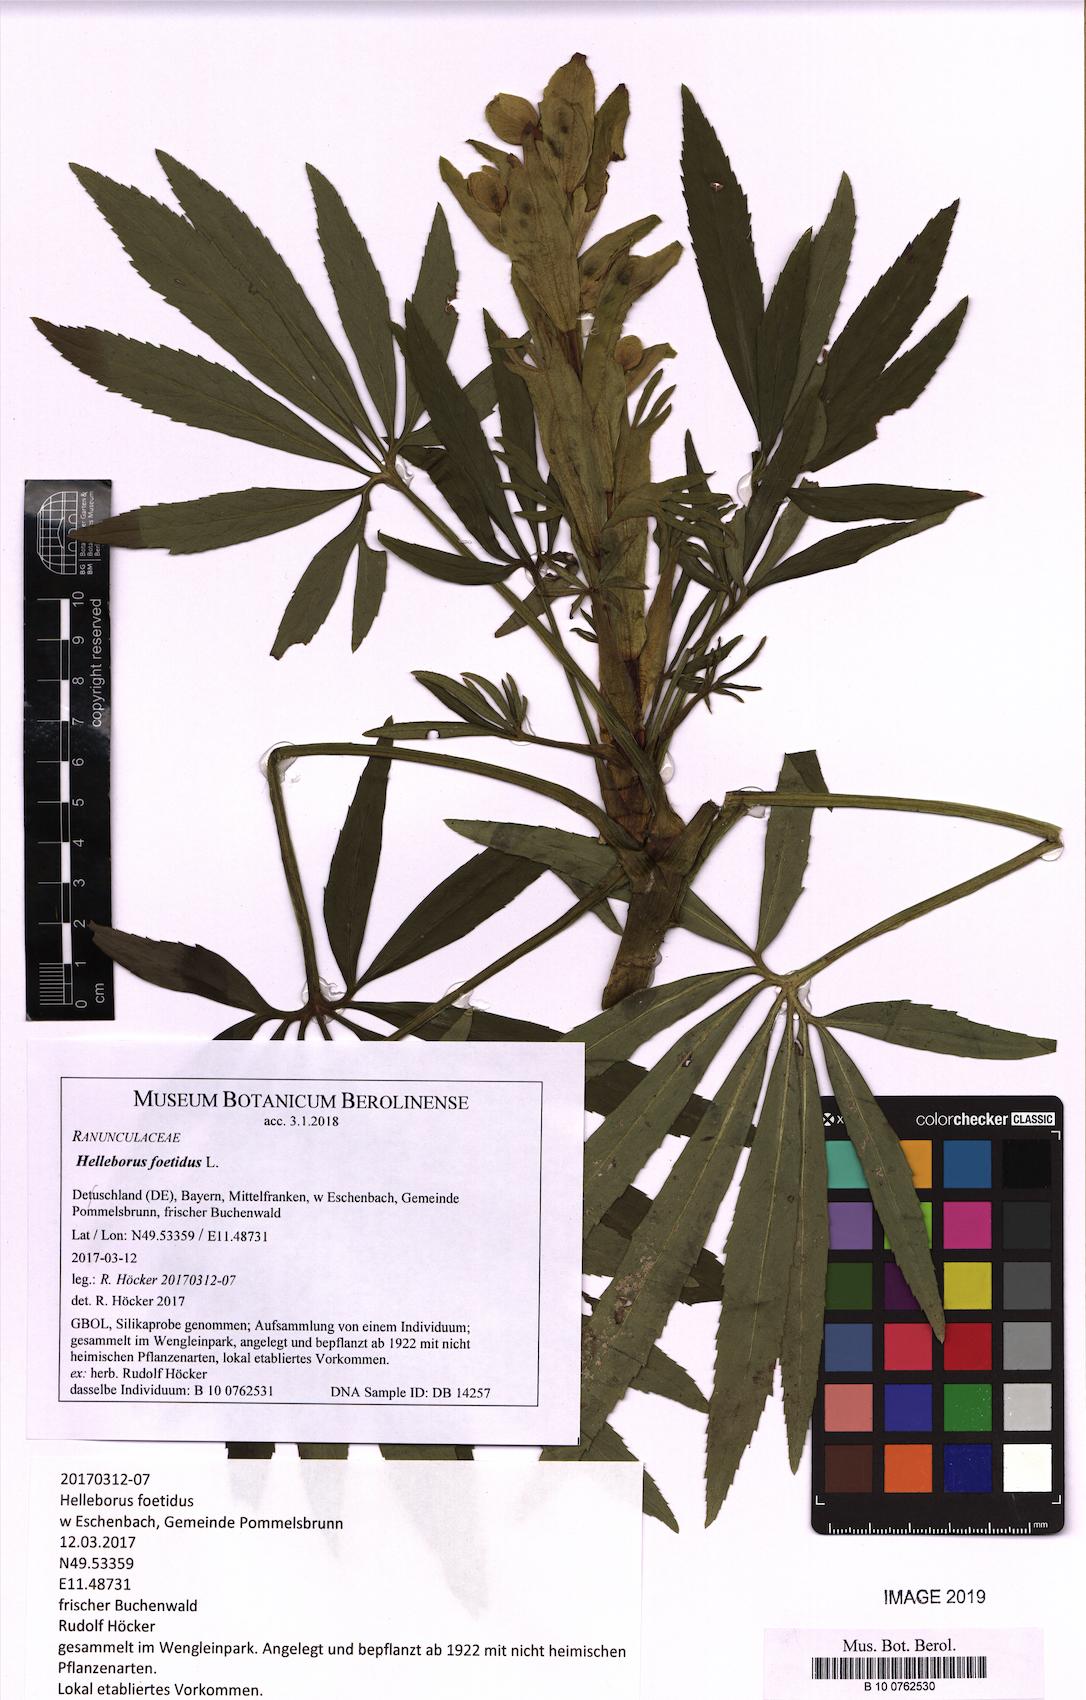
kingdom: Plantae
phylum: Tracheophyta
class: Magnoliopsida
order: Ranunculales
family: Ranunculaceae
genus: Helleborus
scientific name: Helleborus foetidus
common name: Stinking hellebore
